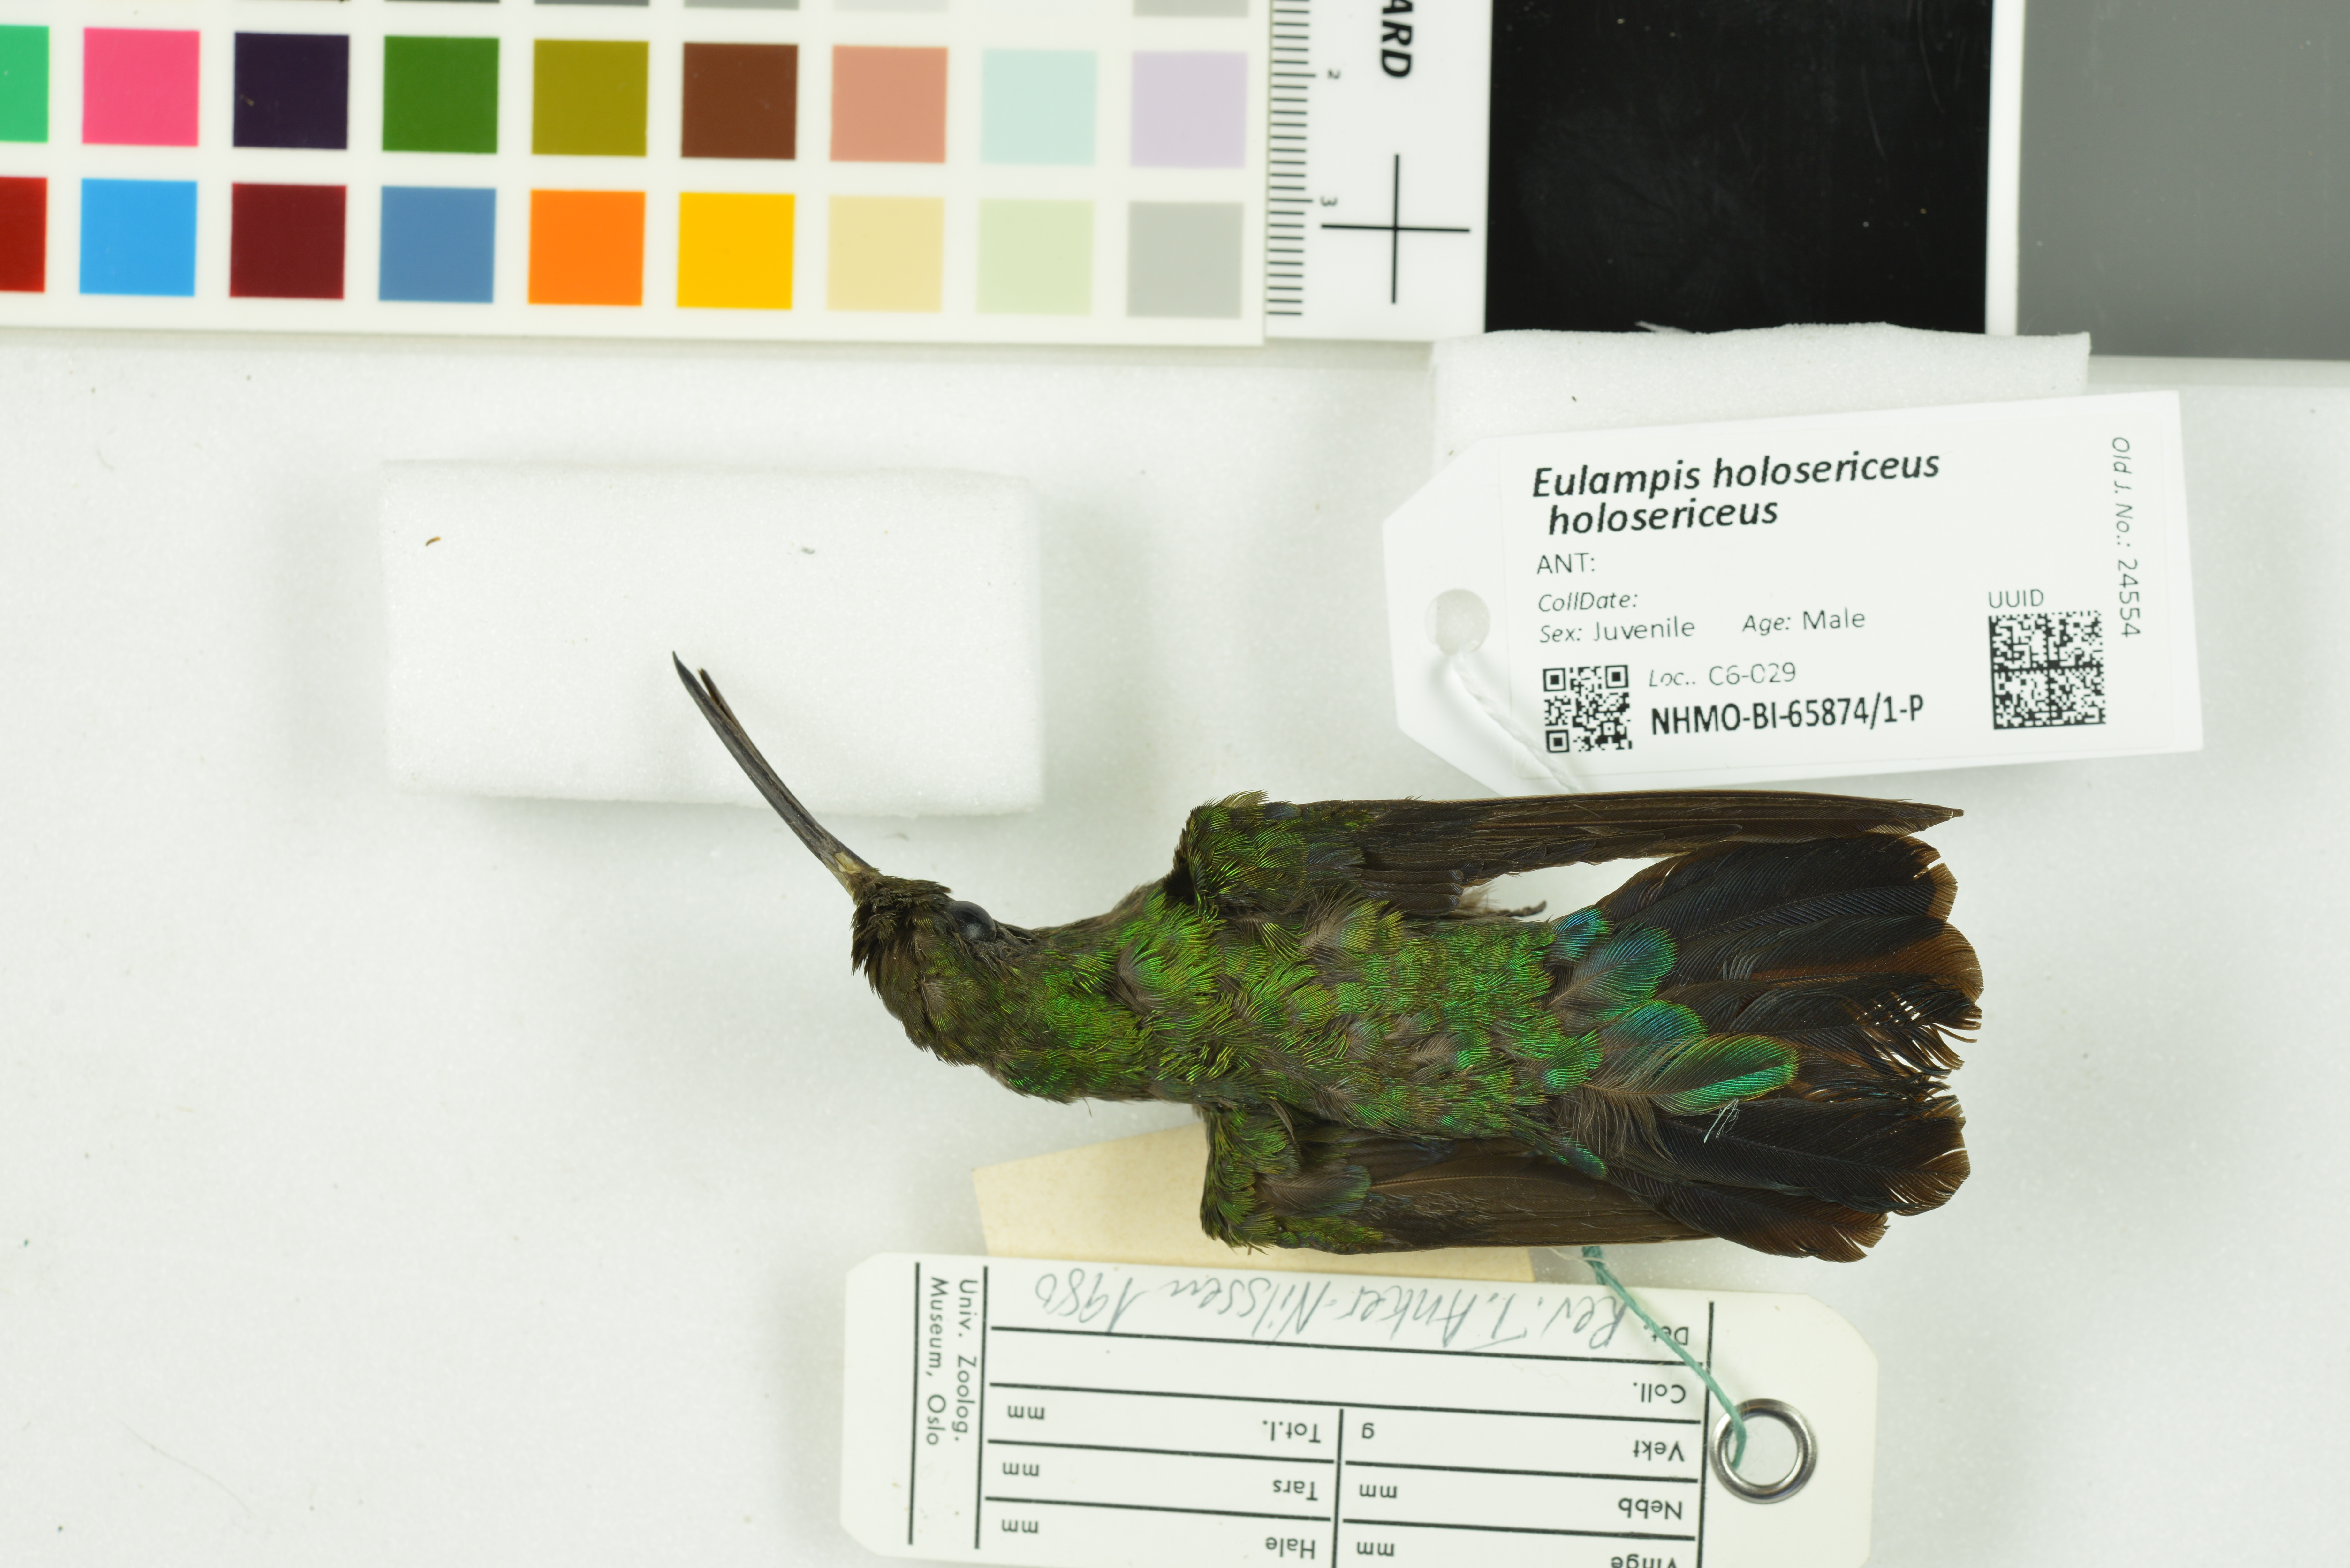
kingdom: Animalia
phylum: Chordata
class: Aves
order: Apodiformes
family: Trochilidae
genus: Eulampis
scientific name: Eulampis holosericeus
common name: Green-throated carib
